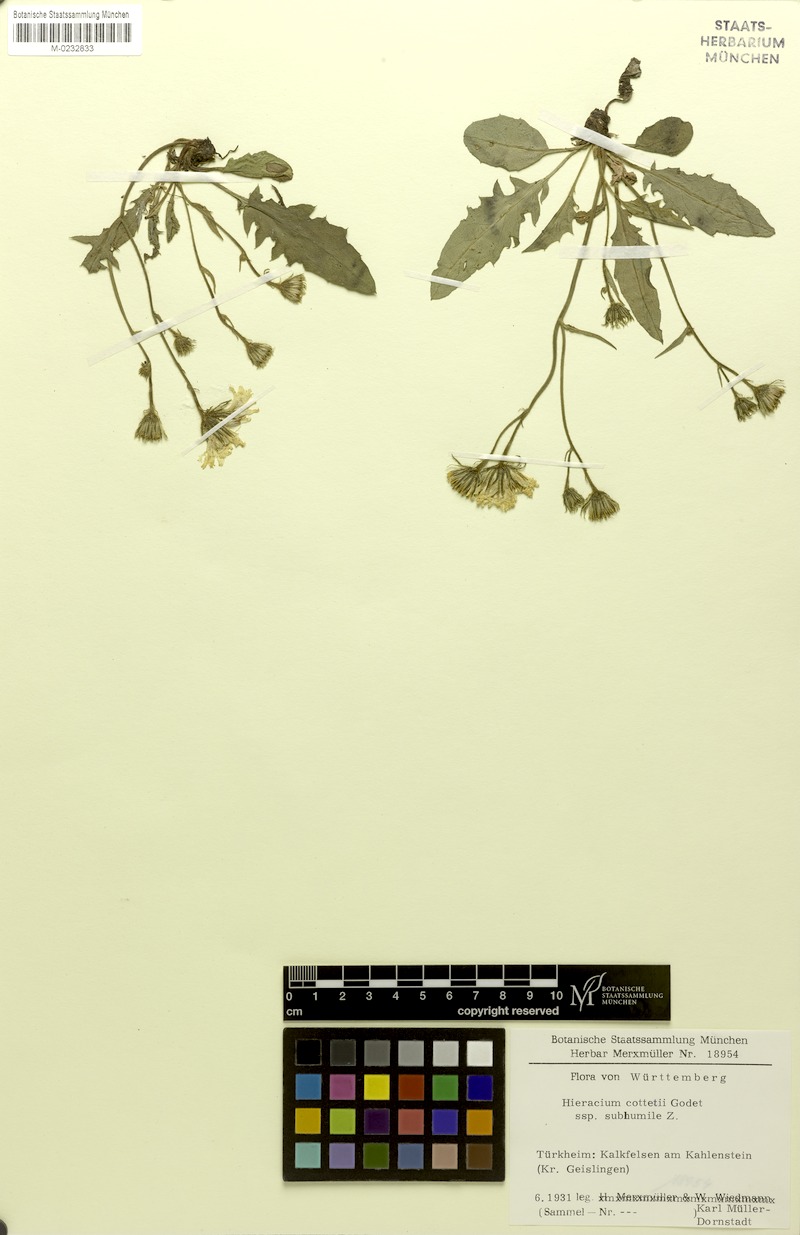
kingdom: Plantae
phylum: Tracheophyta
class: Magnoliopsida
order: Asterales
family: Asteraceae
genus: Hieracium
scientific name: Hieracium cottetii
